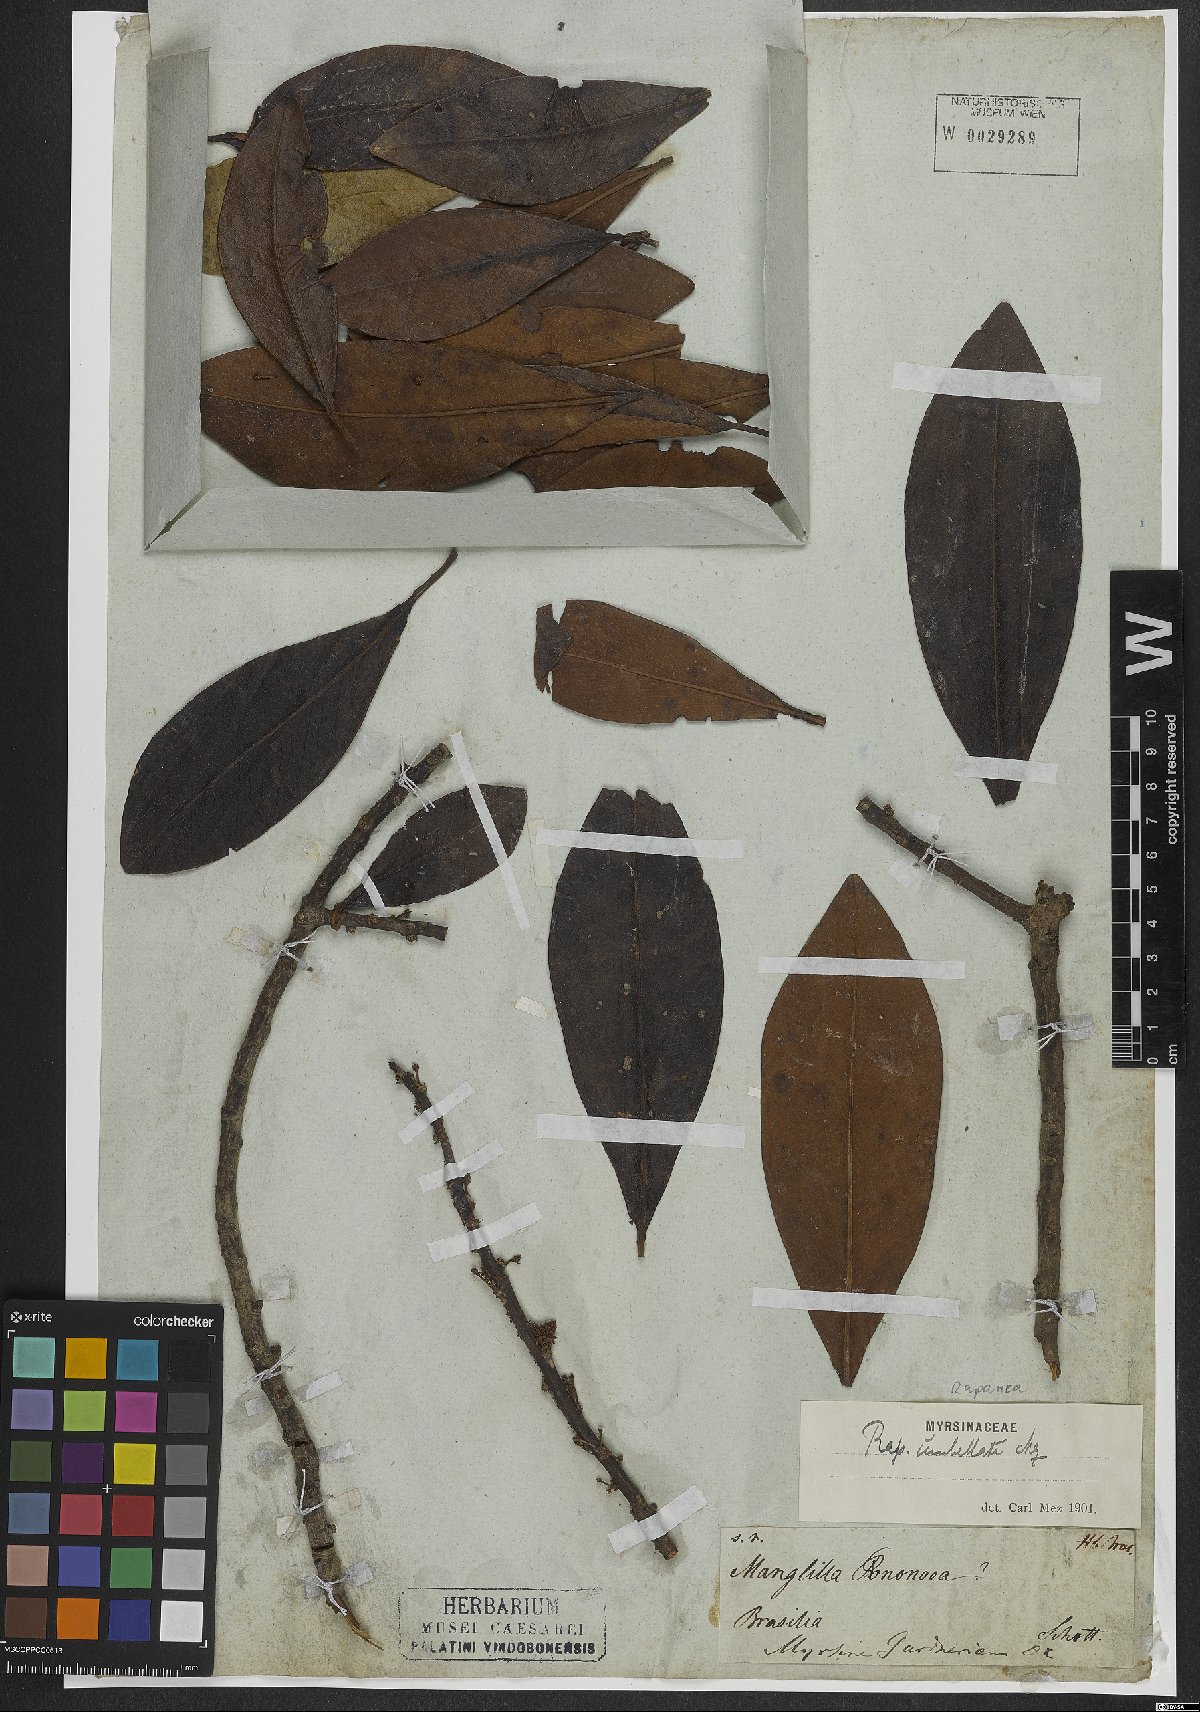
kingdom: Plantae
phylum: Tracheophyta
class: Magnoliopsida
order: Ericales
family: Primulaceae
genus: Myrsine
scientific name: Myrsine umbellata
